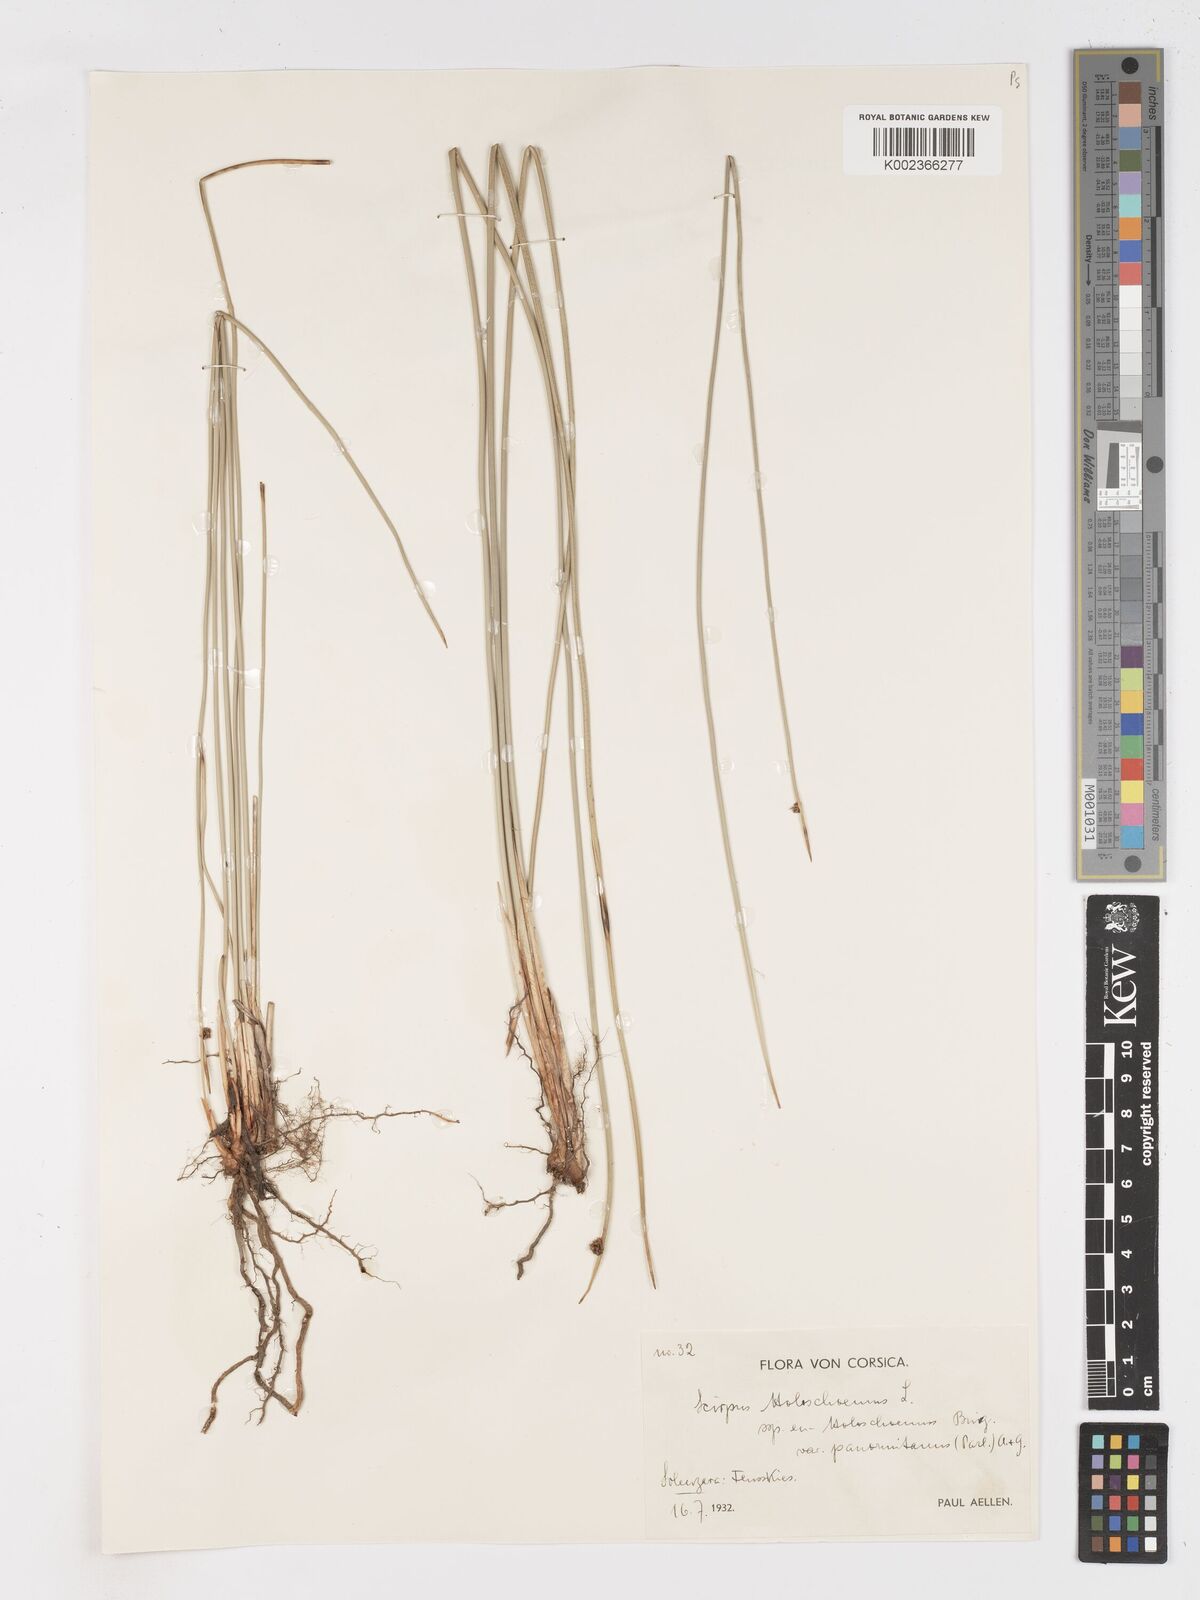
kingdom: Plantae
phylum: Tracheophyta
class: Liliopsida
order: Poales
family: Cyperaceae
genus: Scirpoides
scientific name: Scirpoides holoschoenus
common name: Round-headed club-rush
